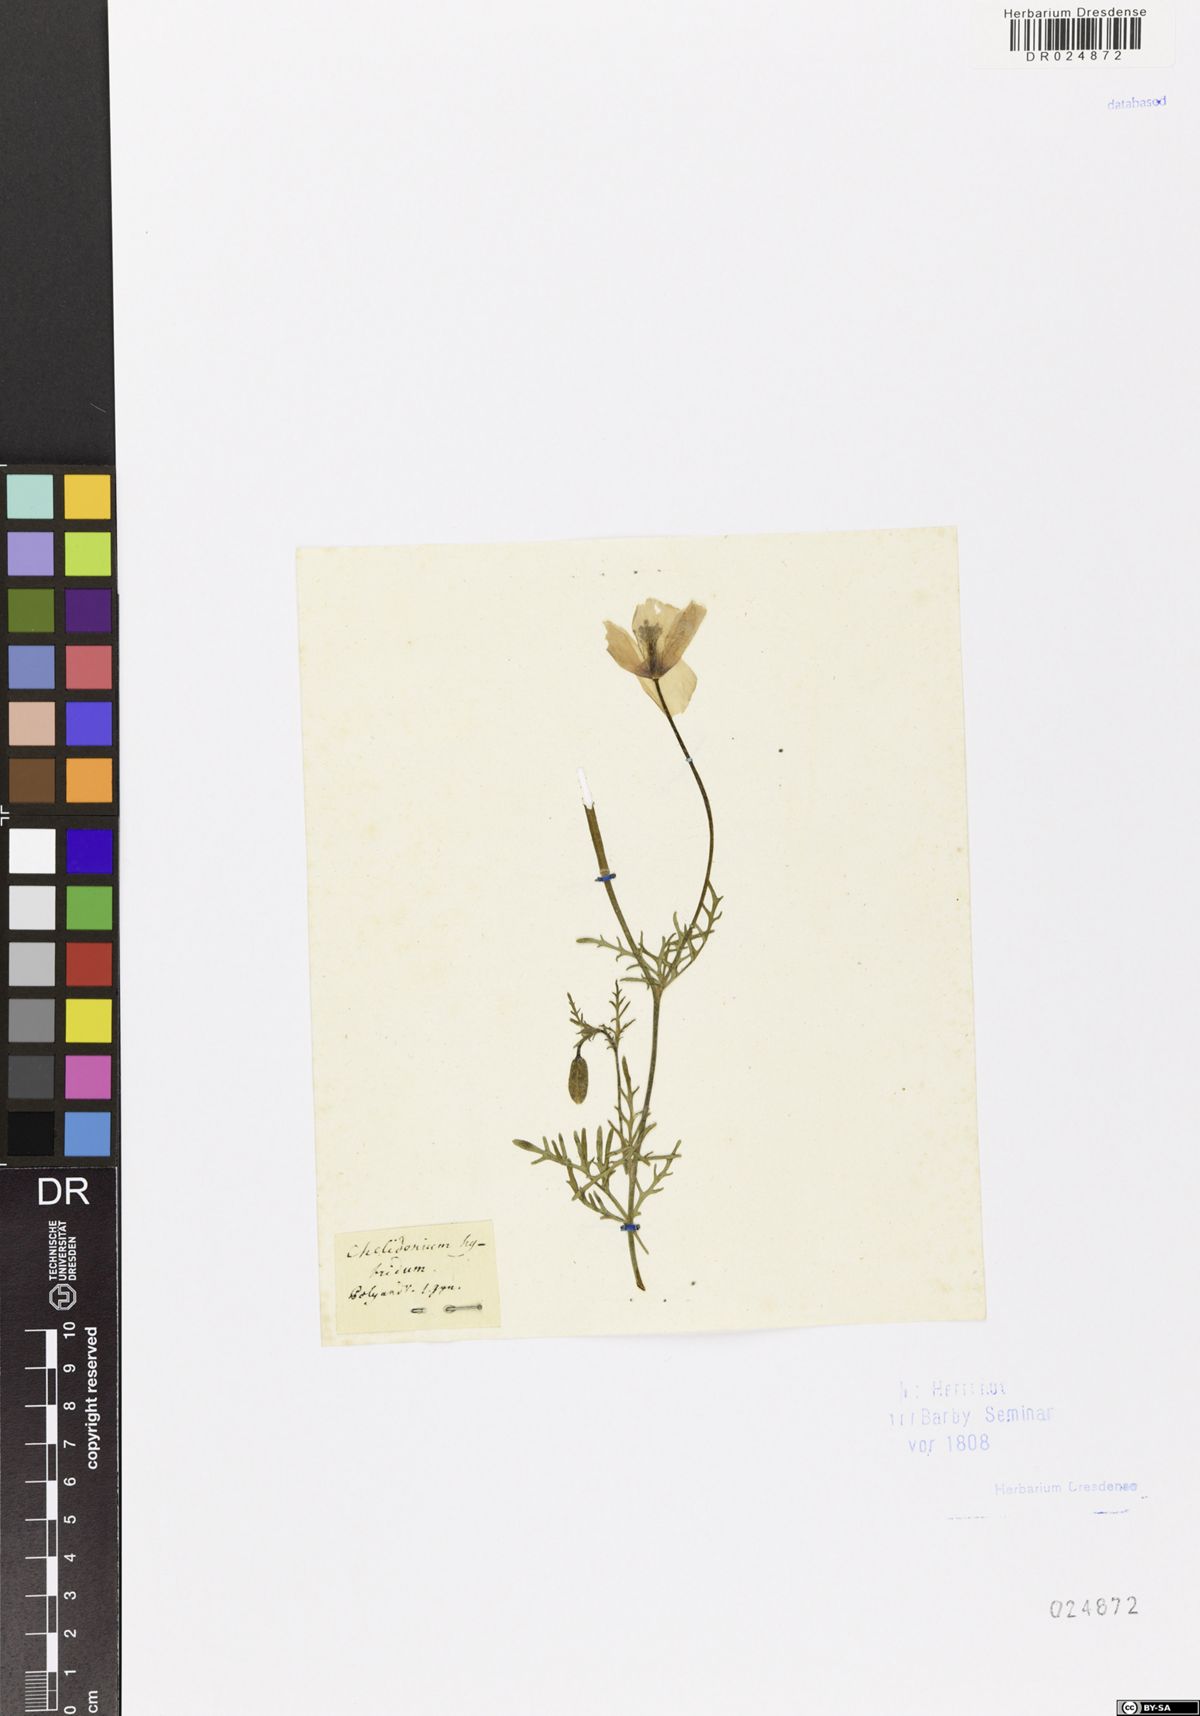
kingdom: Plantae
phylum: Tracheophyta
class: Magnoliopsida
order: Ranunculales
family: Papaveraceae
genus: Papaver
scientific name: Papaver
